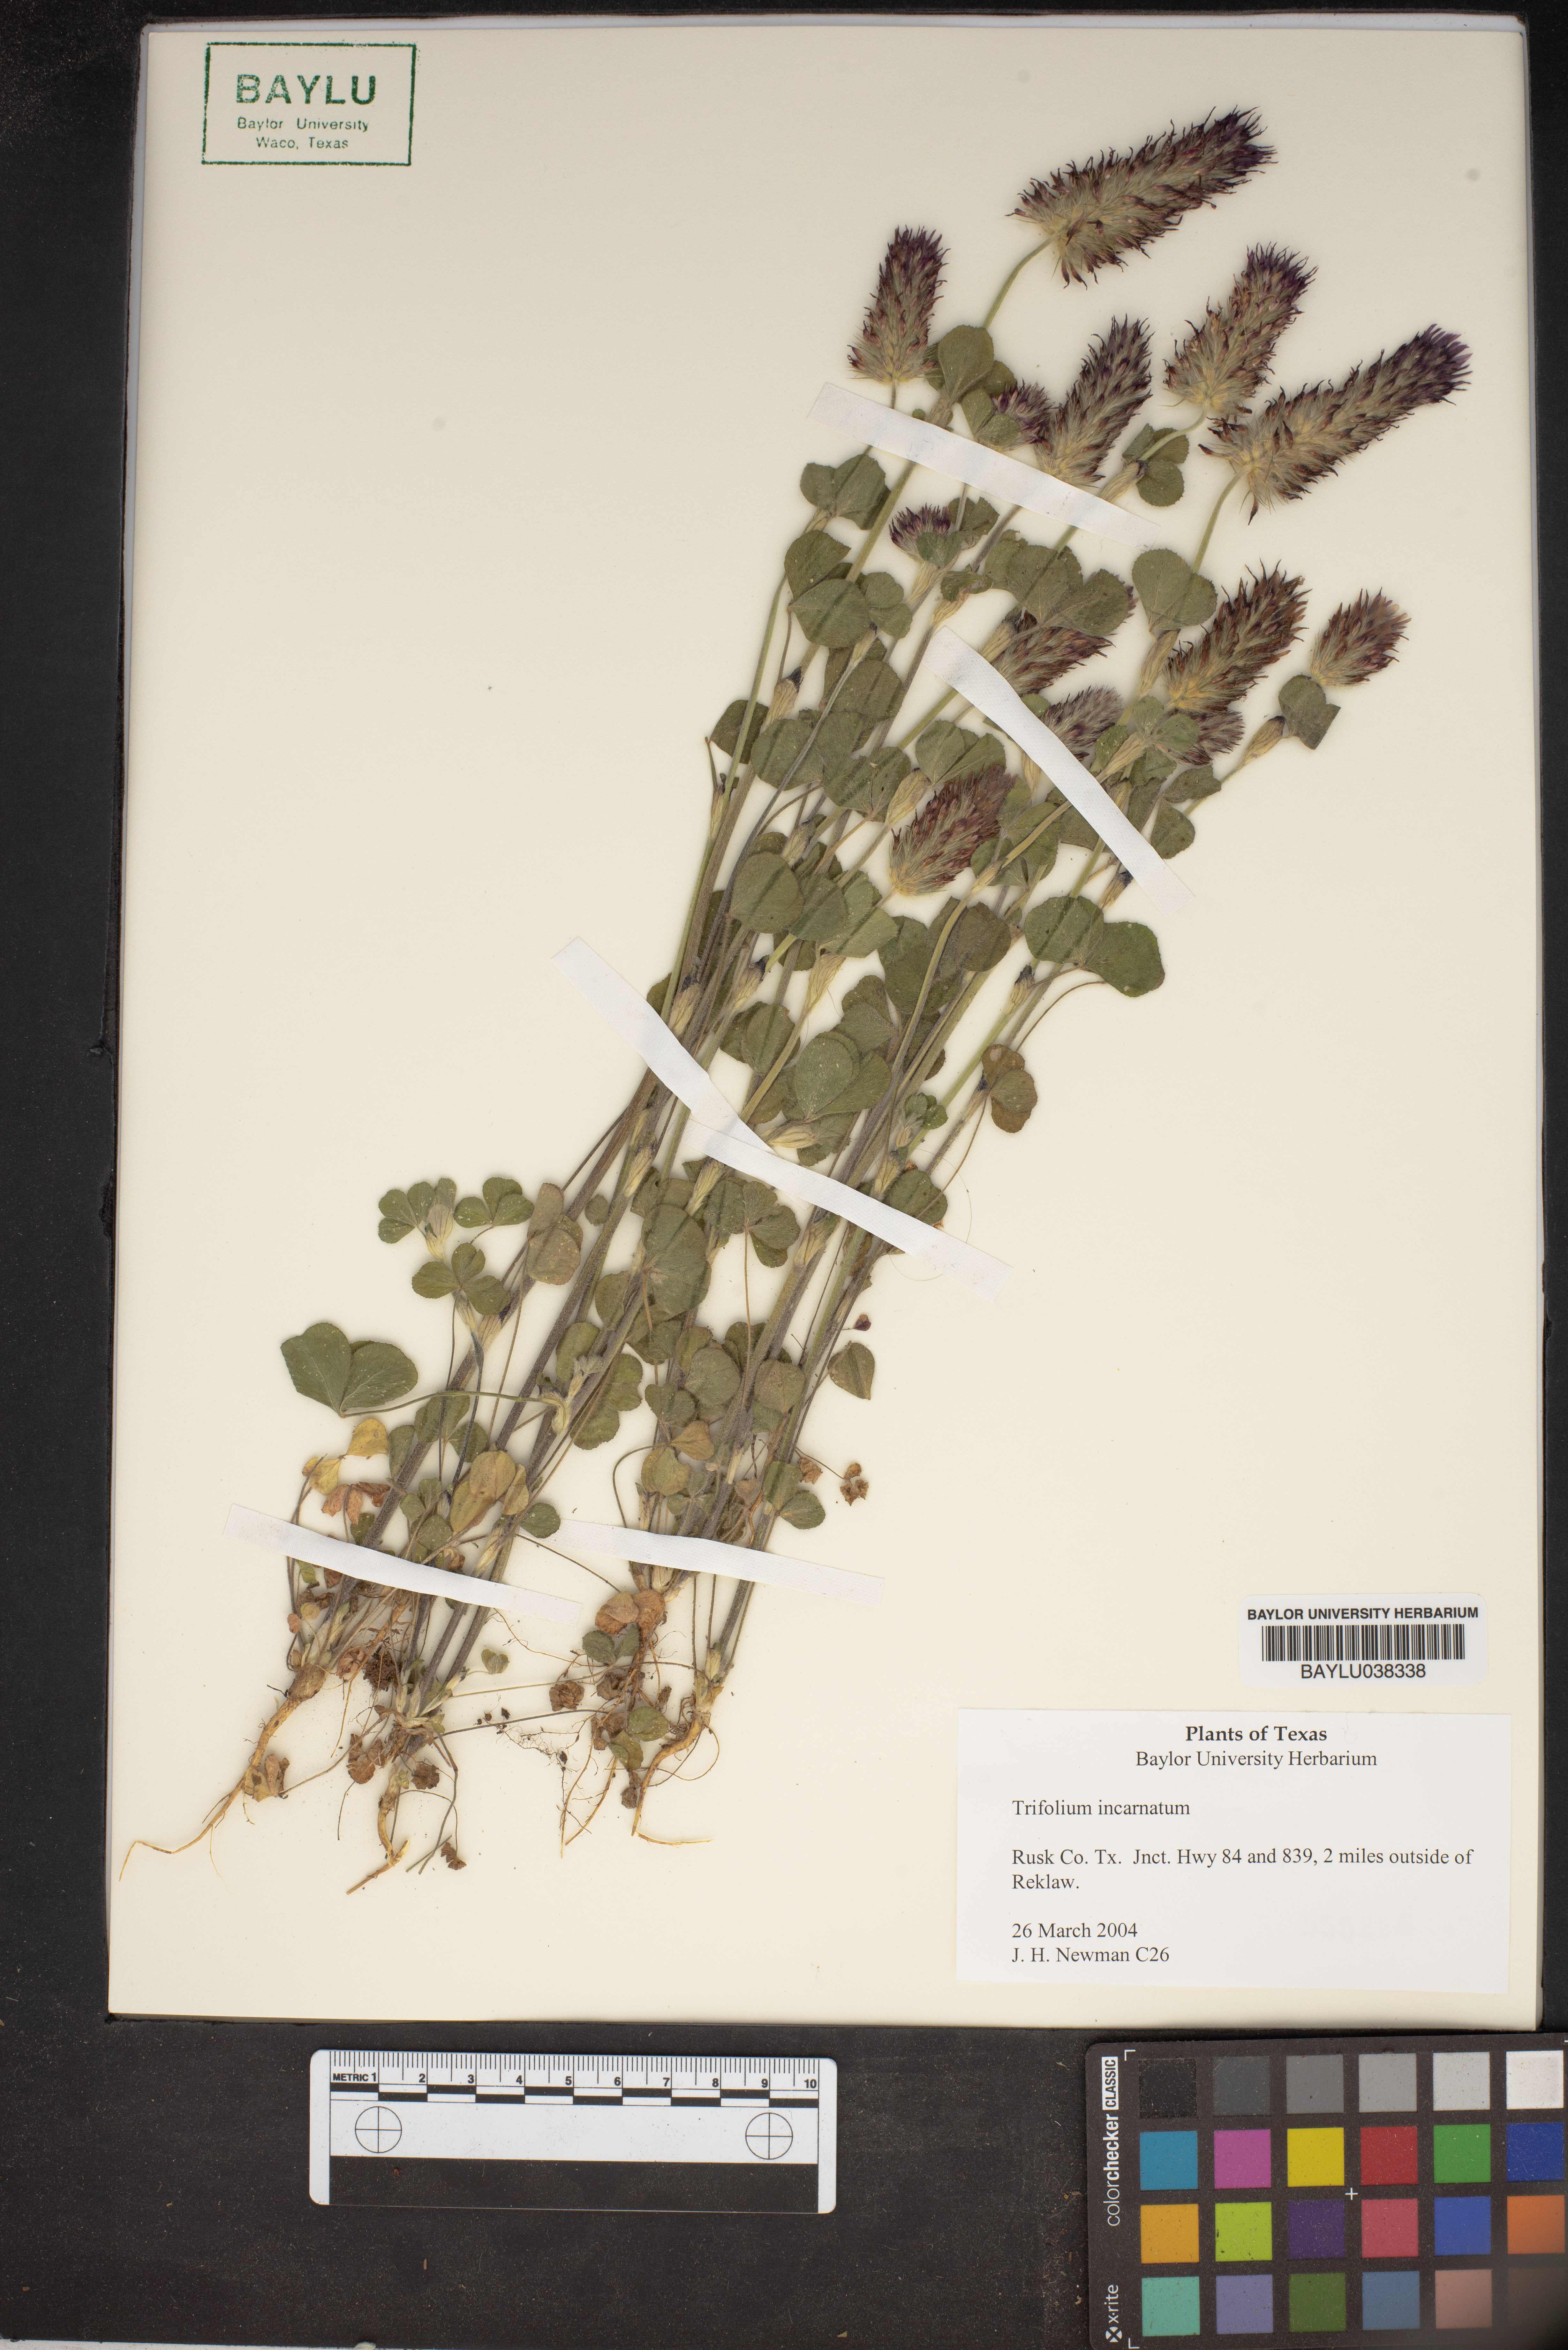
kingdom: Plantae
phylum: Tracheophyta
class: Magnoliopsida
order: Fabales
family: Fabaceae
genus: Trifolium
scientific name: Trifolium incarnatum
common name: Crimson clover
